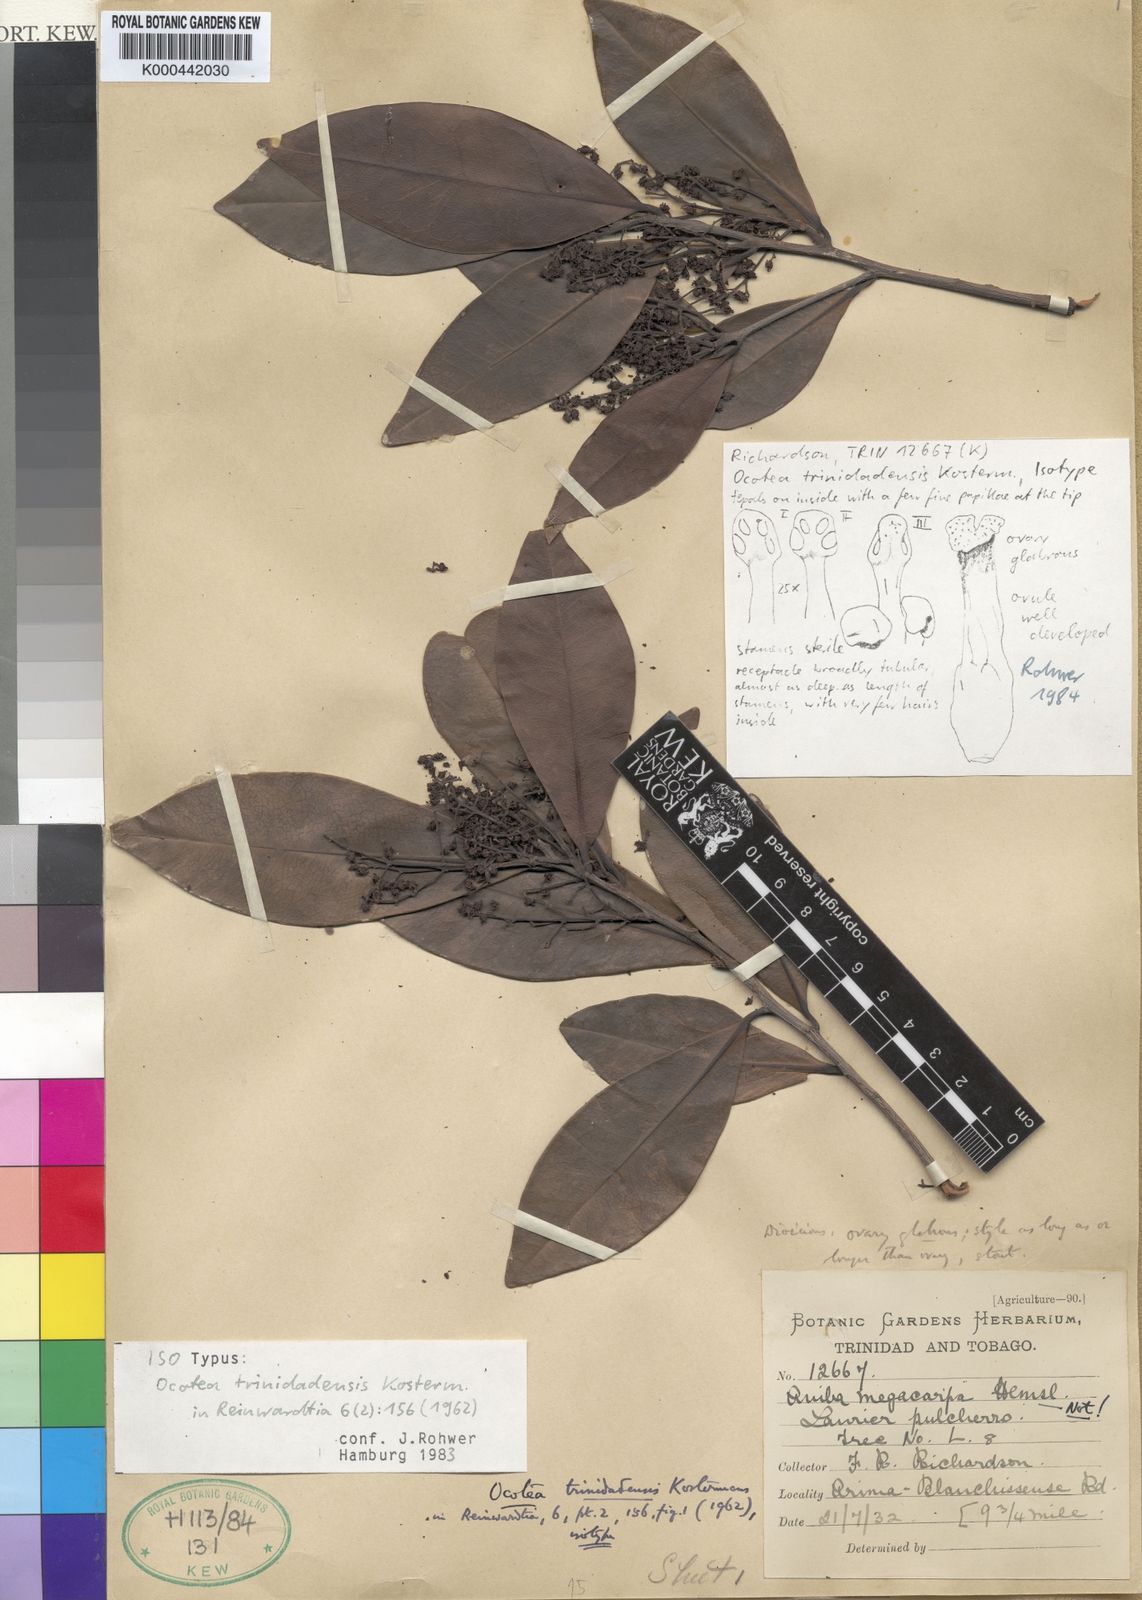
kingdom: Plantae
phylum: Tracheophyta
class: Magnoliopsida
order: Laurales
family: Lauraceae
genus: Ocotea
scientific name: Ocotea trinidadensis
